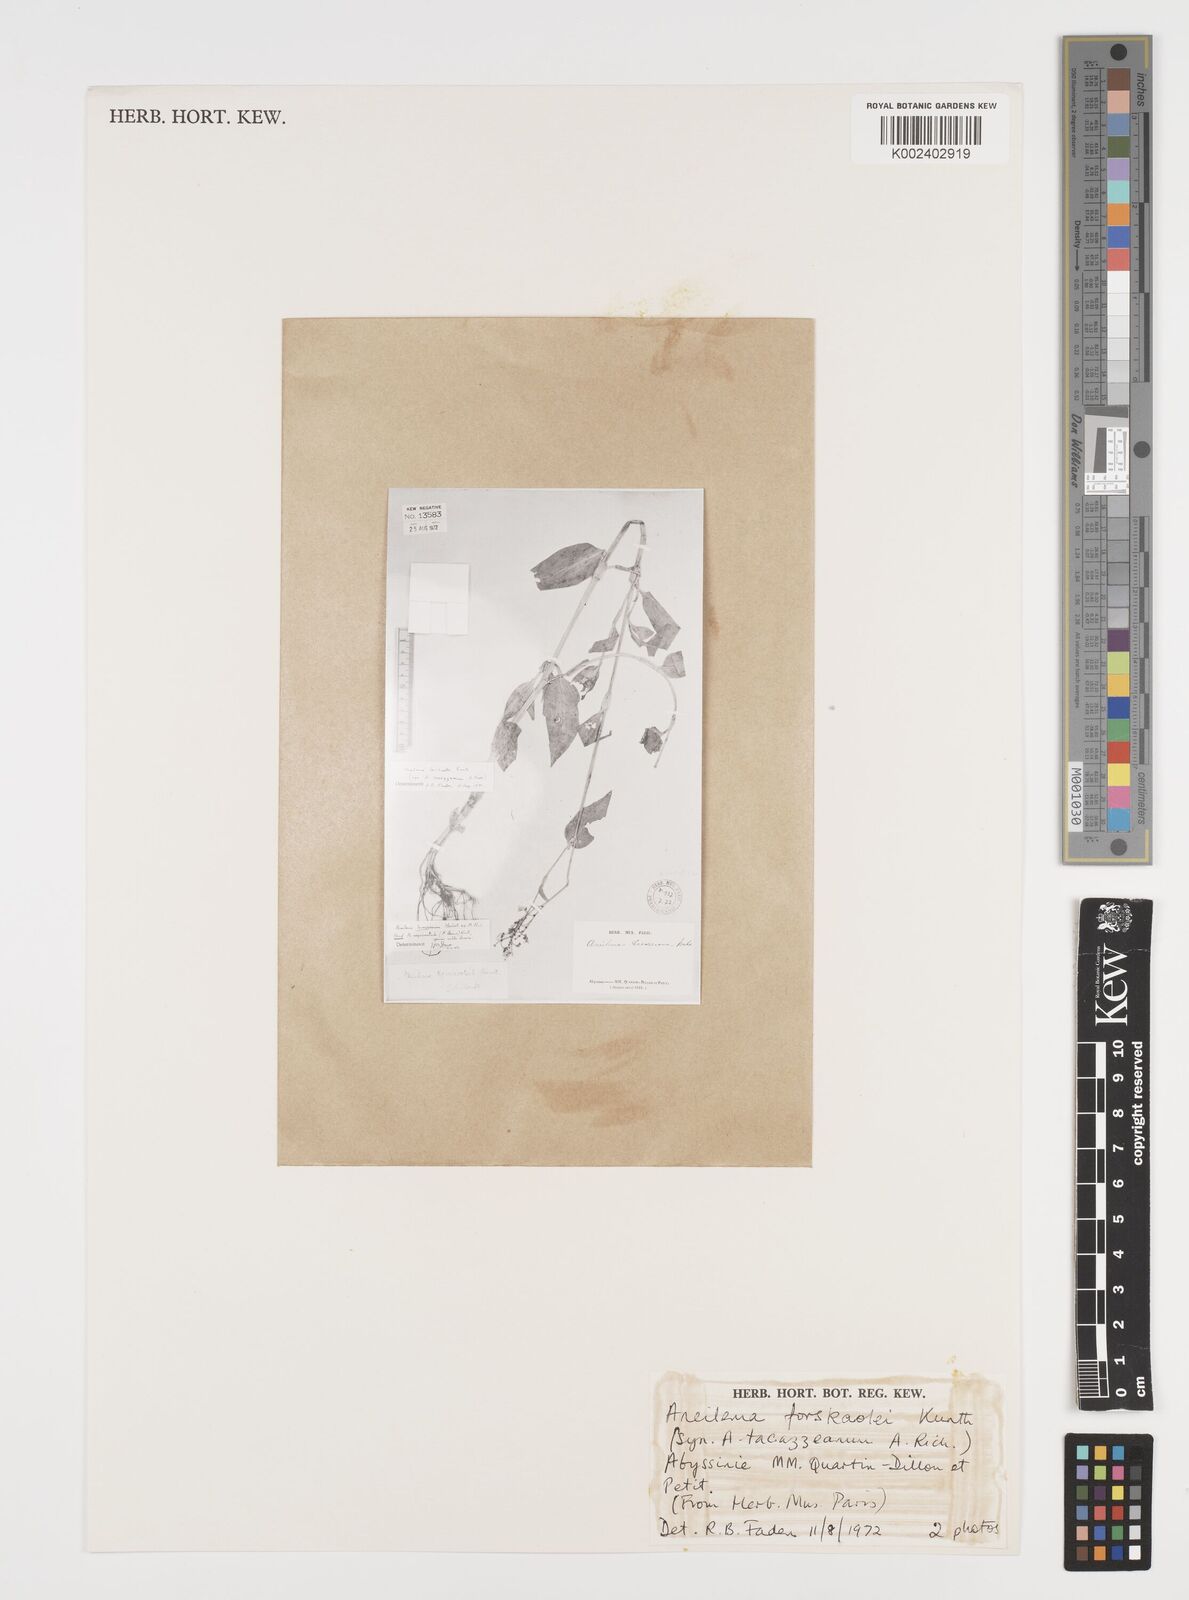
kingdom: Plantae
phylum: Tracheophyta
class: Liliopsida
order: Commelinales
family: Commelinaceae
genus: Aneilema
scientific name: Aneilema forskalii
